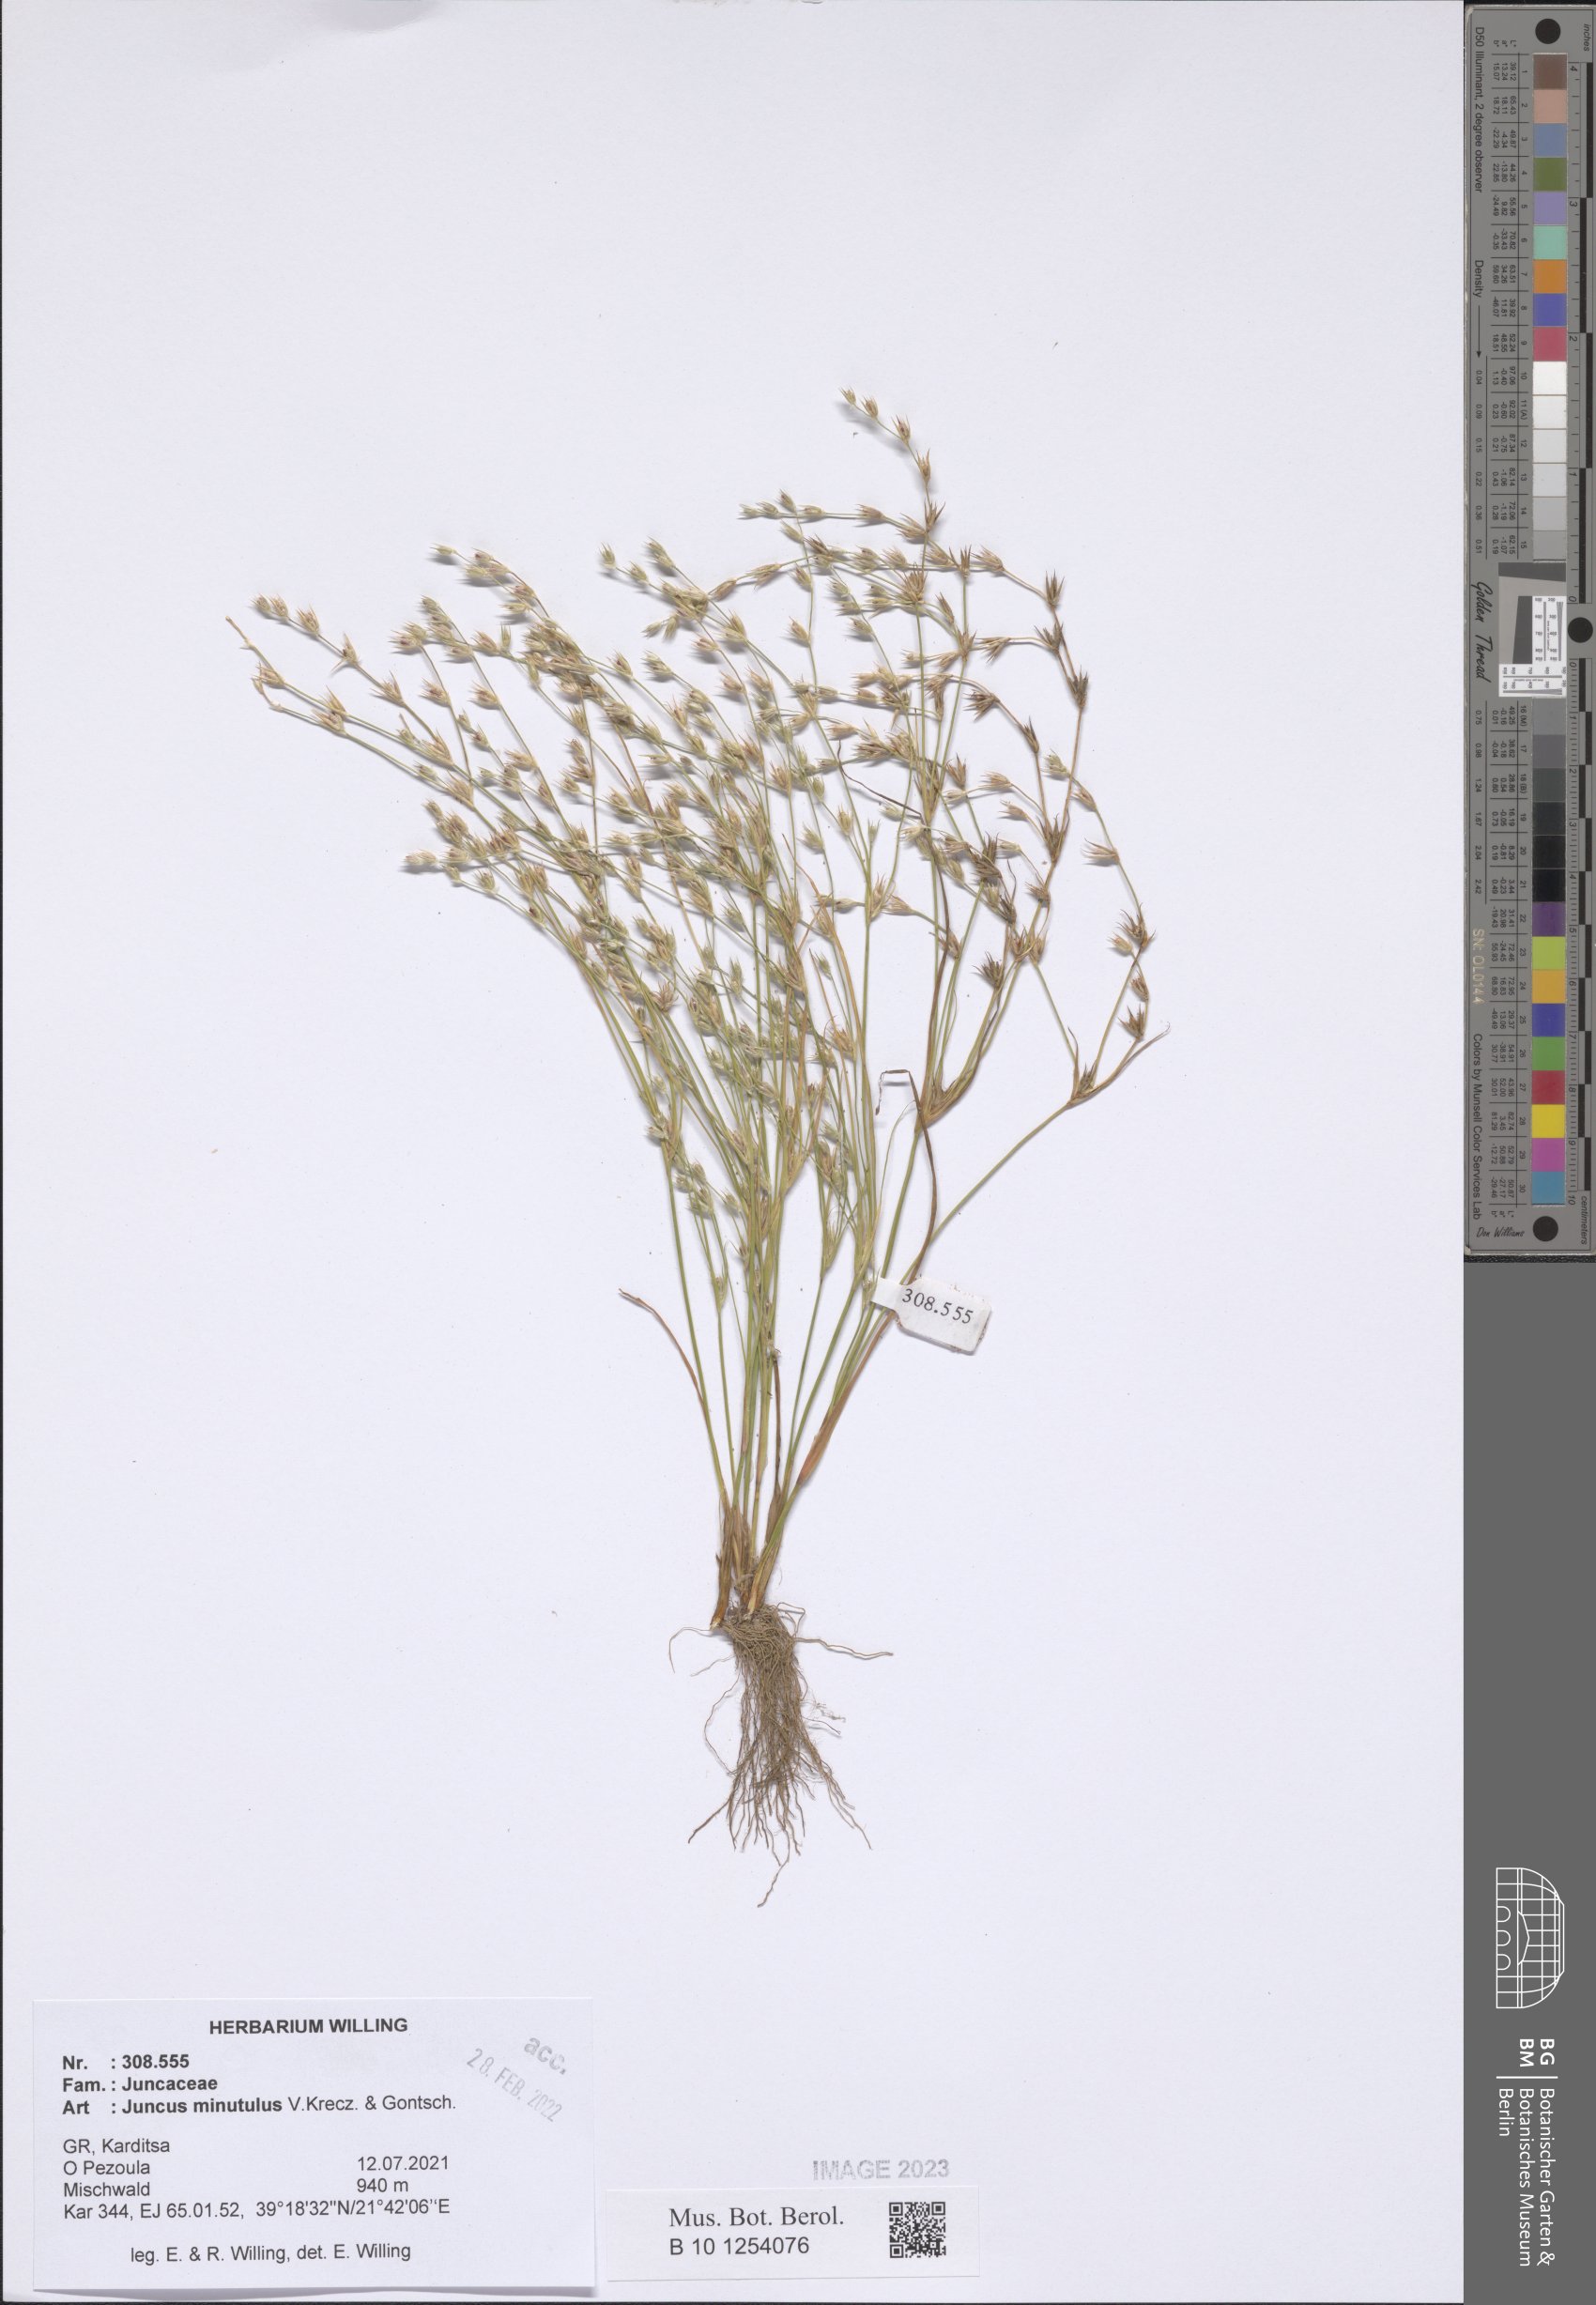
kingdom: Plantae
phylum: Tracheophyta
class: Liliopsida
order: Poales
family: Juncaceae
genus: Juncus
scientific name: Juncus minutulus
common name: Minute rush
